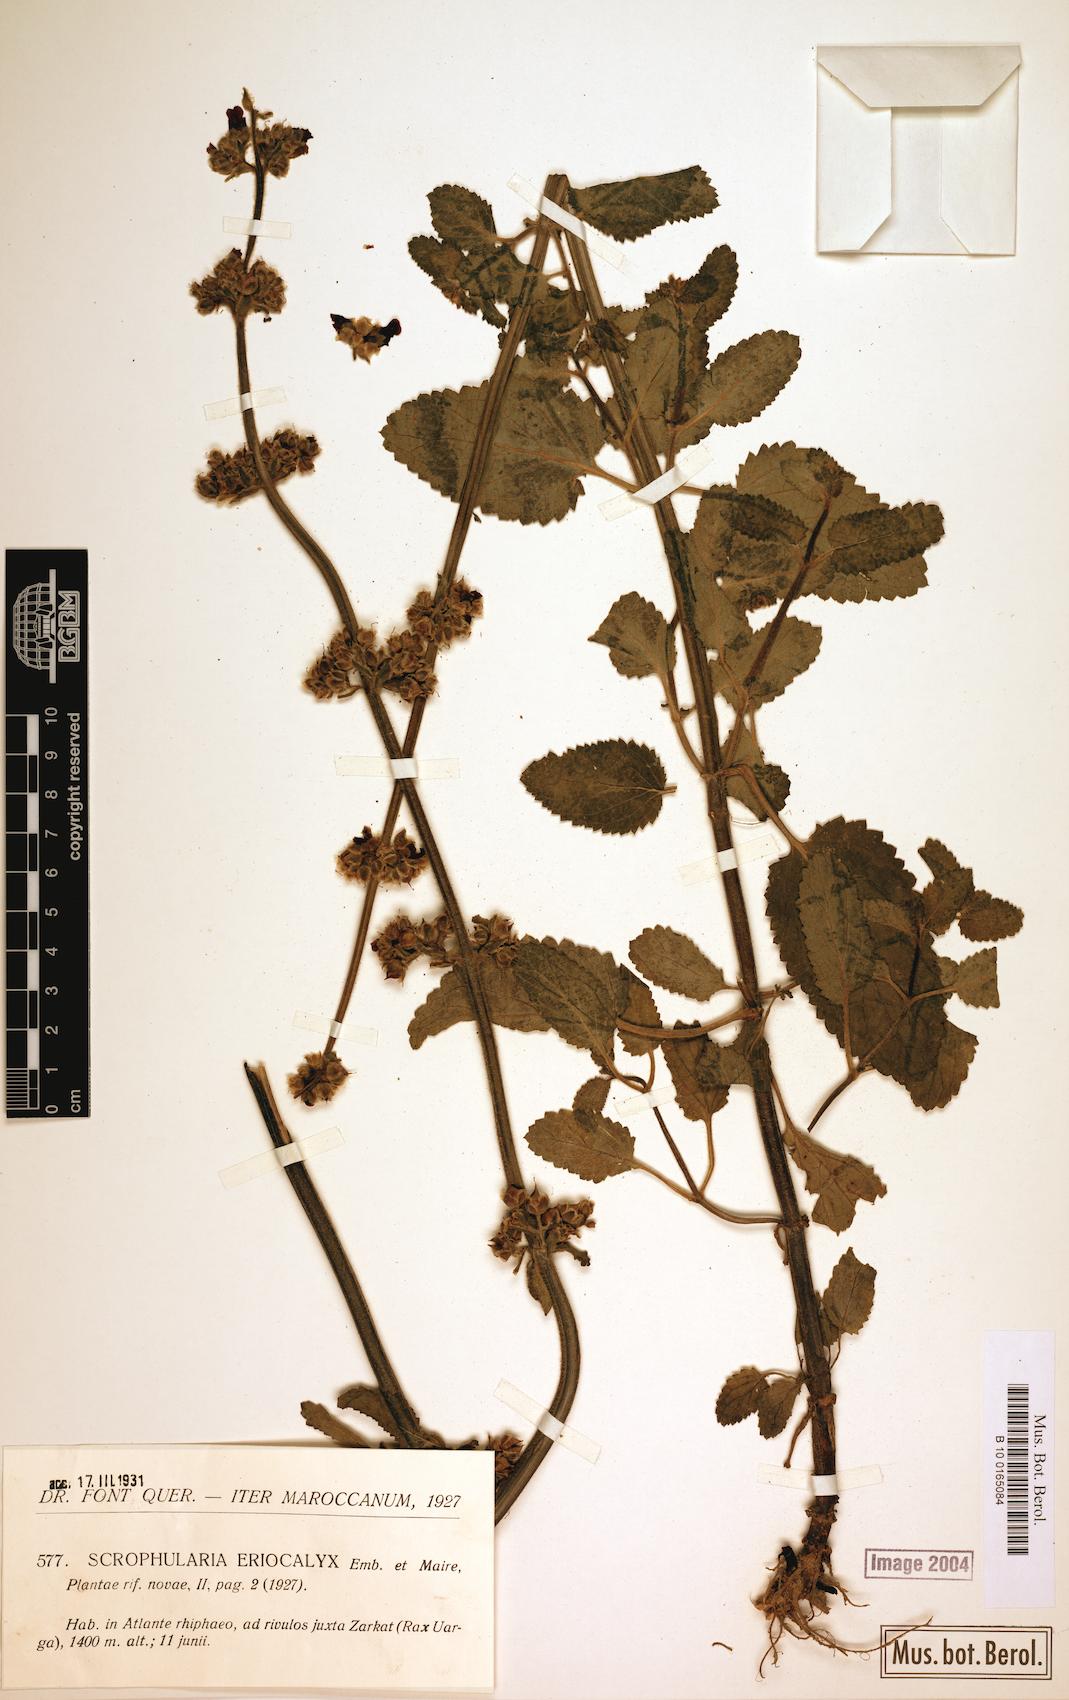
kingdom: Plantae
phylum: Tracheophyta
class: Magnoliopsida
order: Lamiales
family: Scrophulariaceae
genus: Scrophularia
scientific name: Scrophularia eriocalyx
